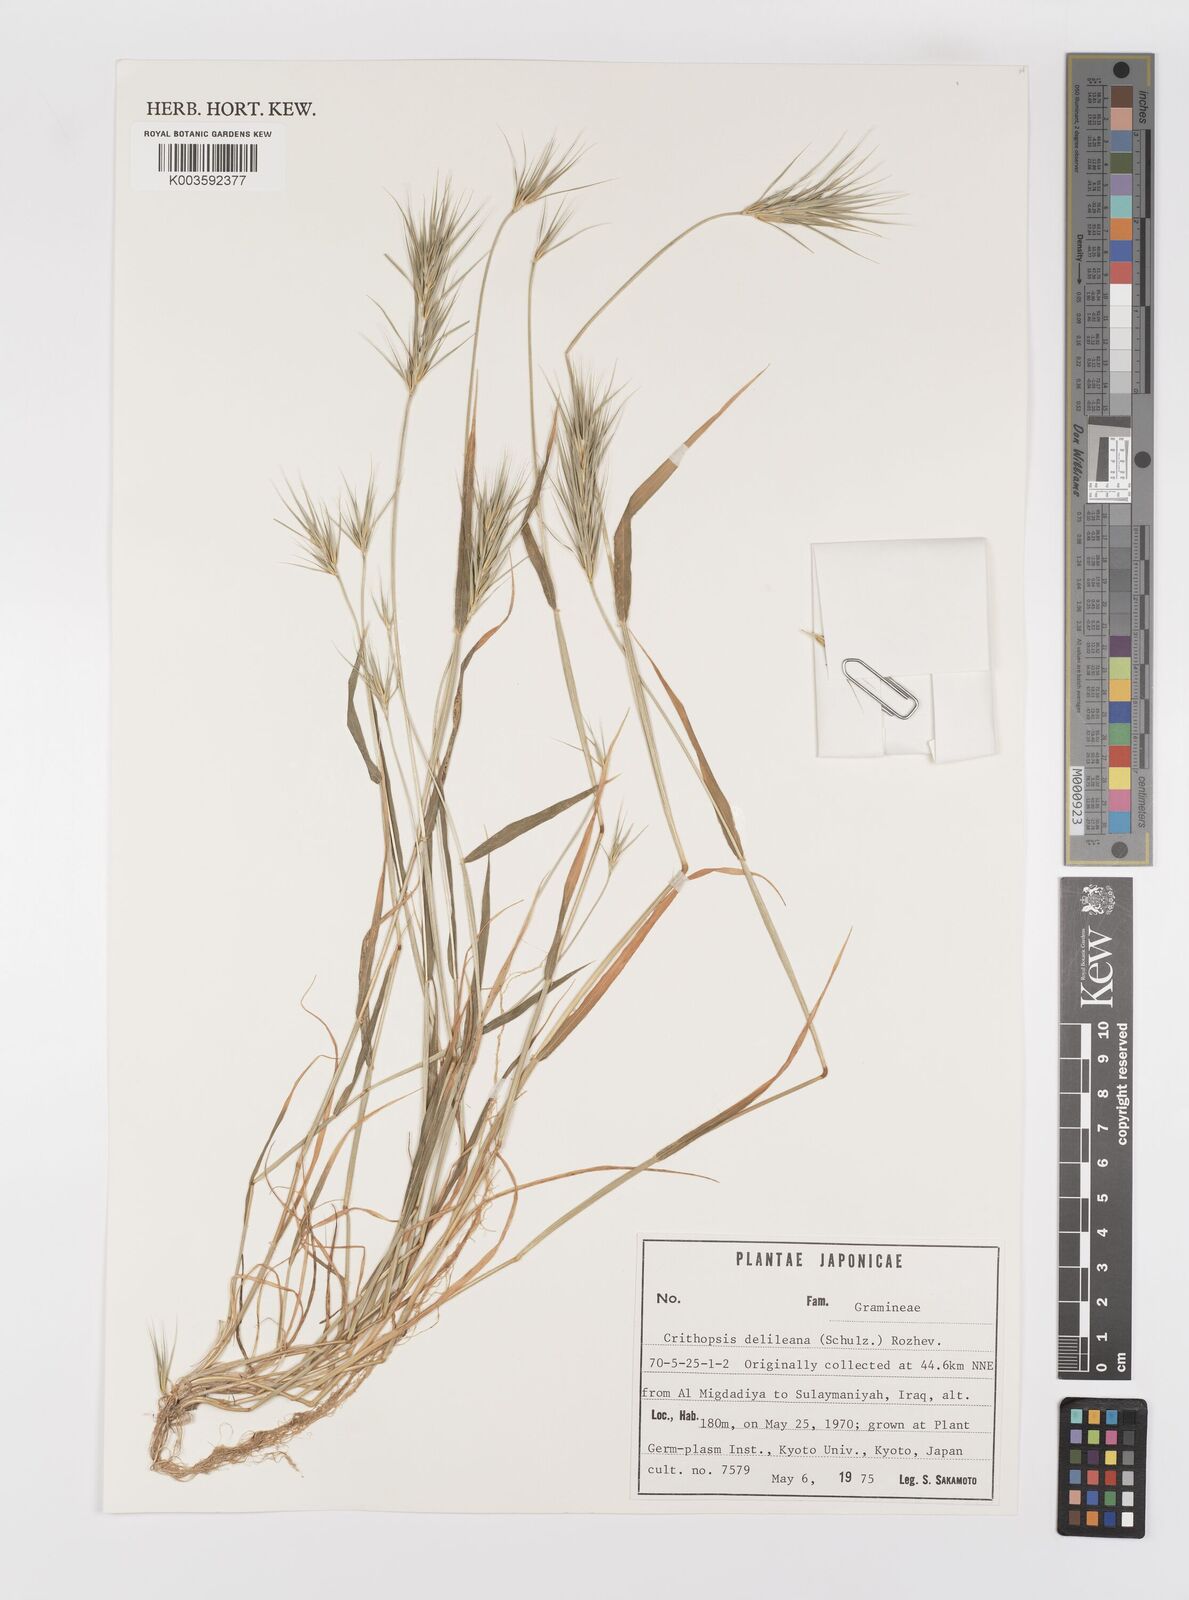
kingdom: Plantae
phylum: Tracheophyta
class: Liliopsida
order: Poales
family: Poaceae
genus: Crithopsis
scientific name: Crithopsis delileana
